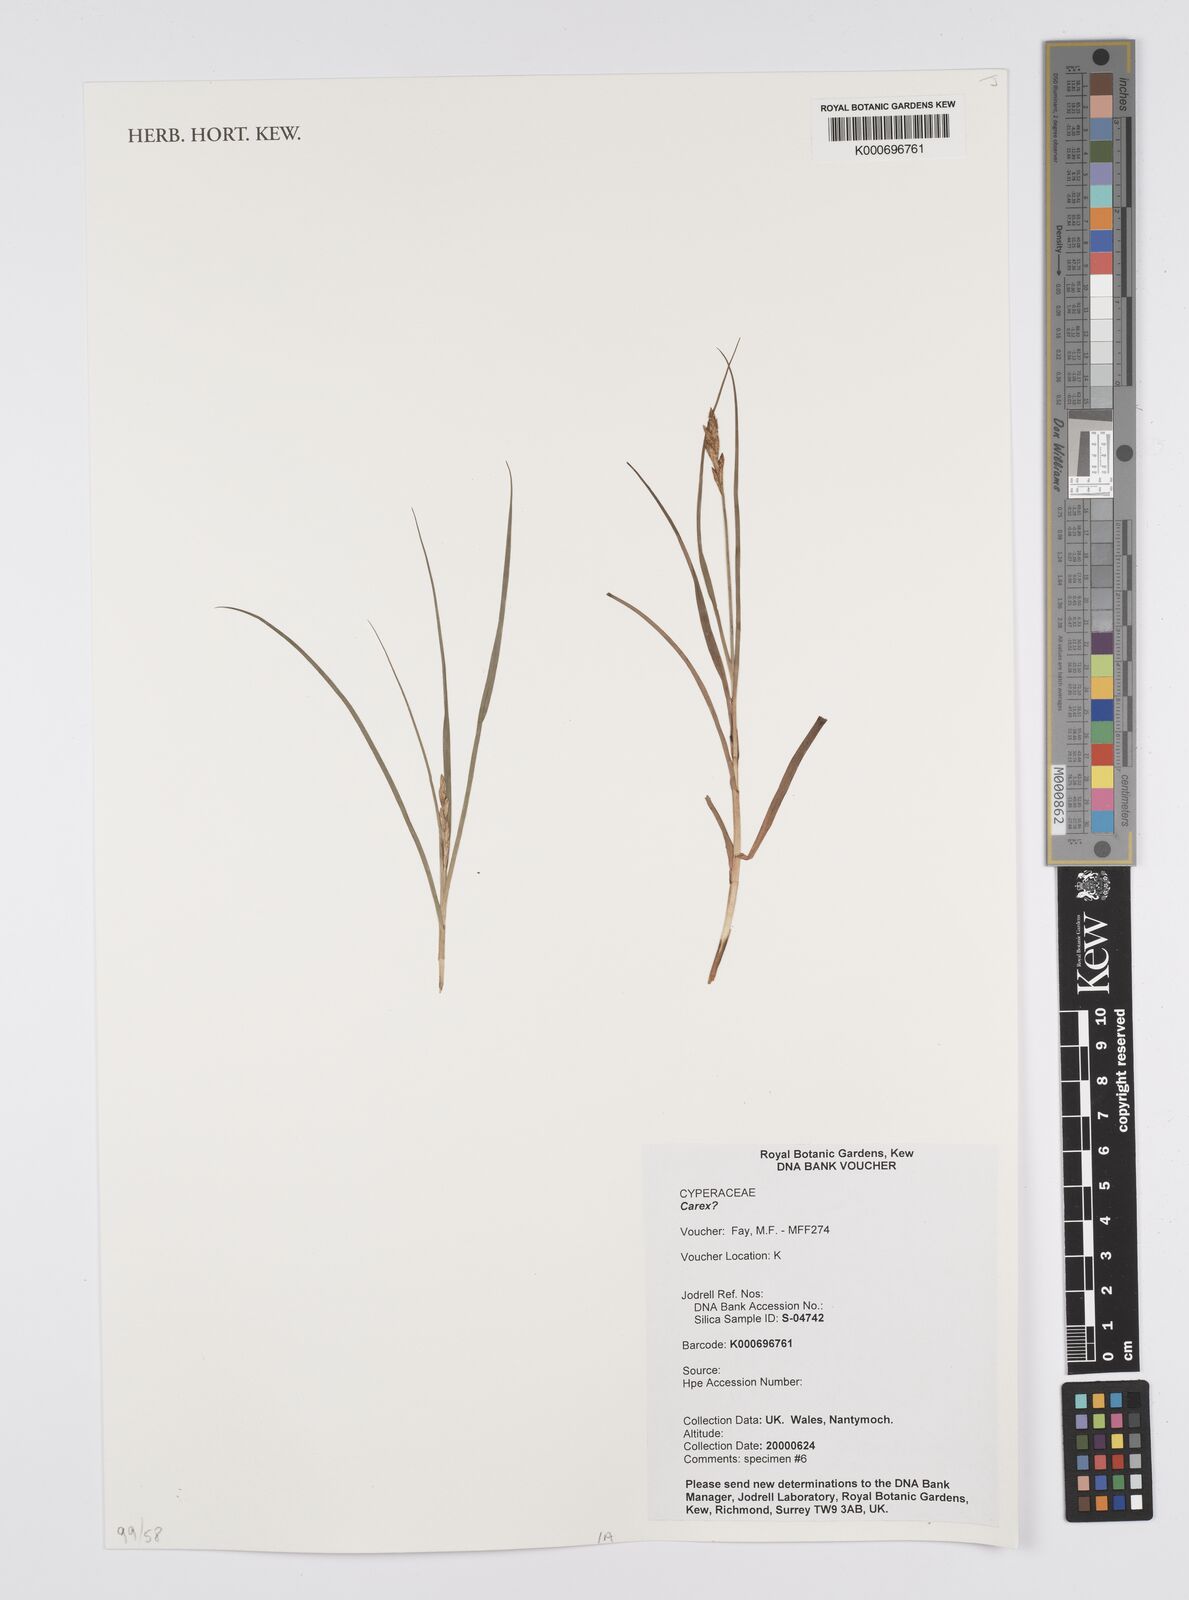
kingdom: Plantae
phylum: Tracheophyta
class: Liliopsida
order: Poales
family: Cyperaceae
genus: Carex
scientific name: Carex
